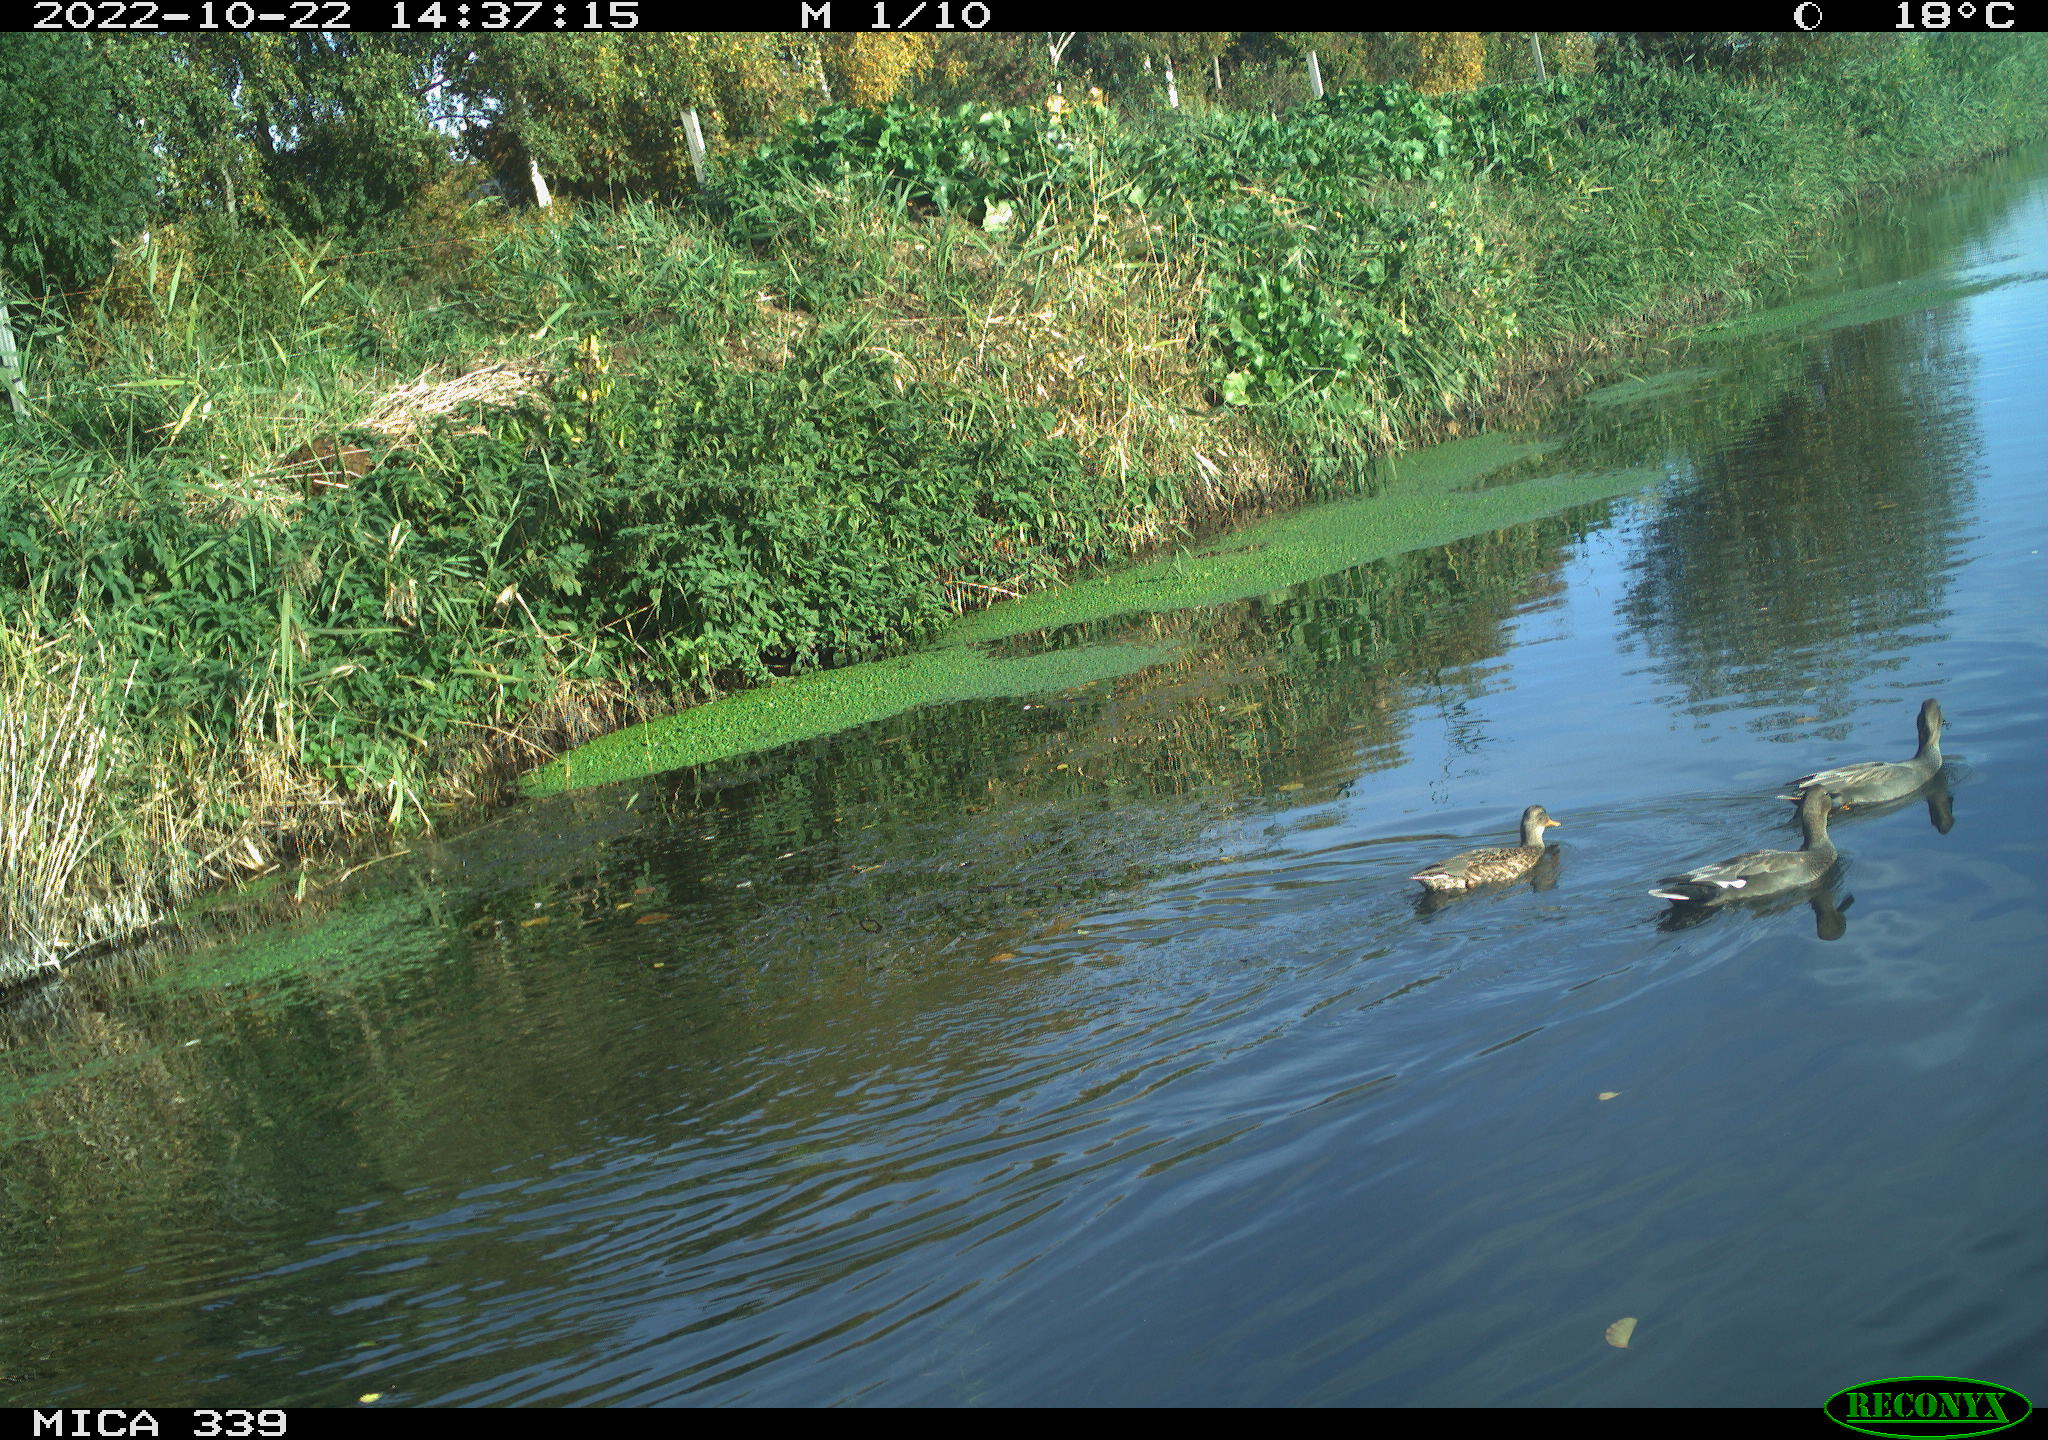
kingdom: Animalia
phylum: Chordata
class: Aves
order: Anseriformes
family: Anatidae
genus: Mareca
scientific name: Mareca strepera
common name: Gadwall
